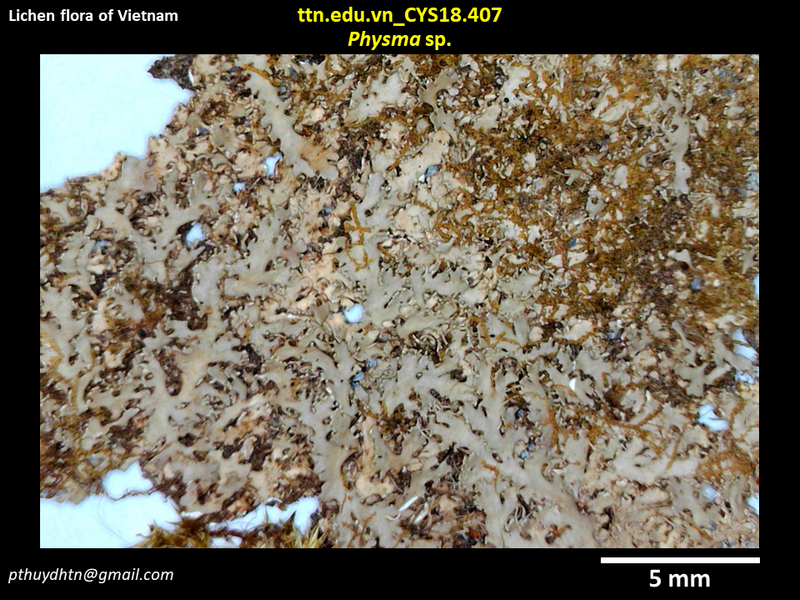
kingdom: Fungi
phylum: Ascomycota
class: Lecanoromycetes
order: Peltigerales
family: Pannariaceae
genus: Physma
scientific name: Physma
